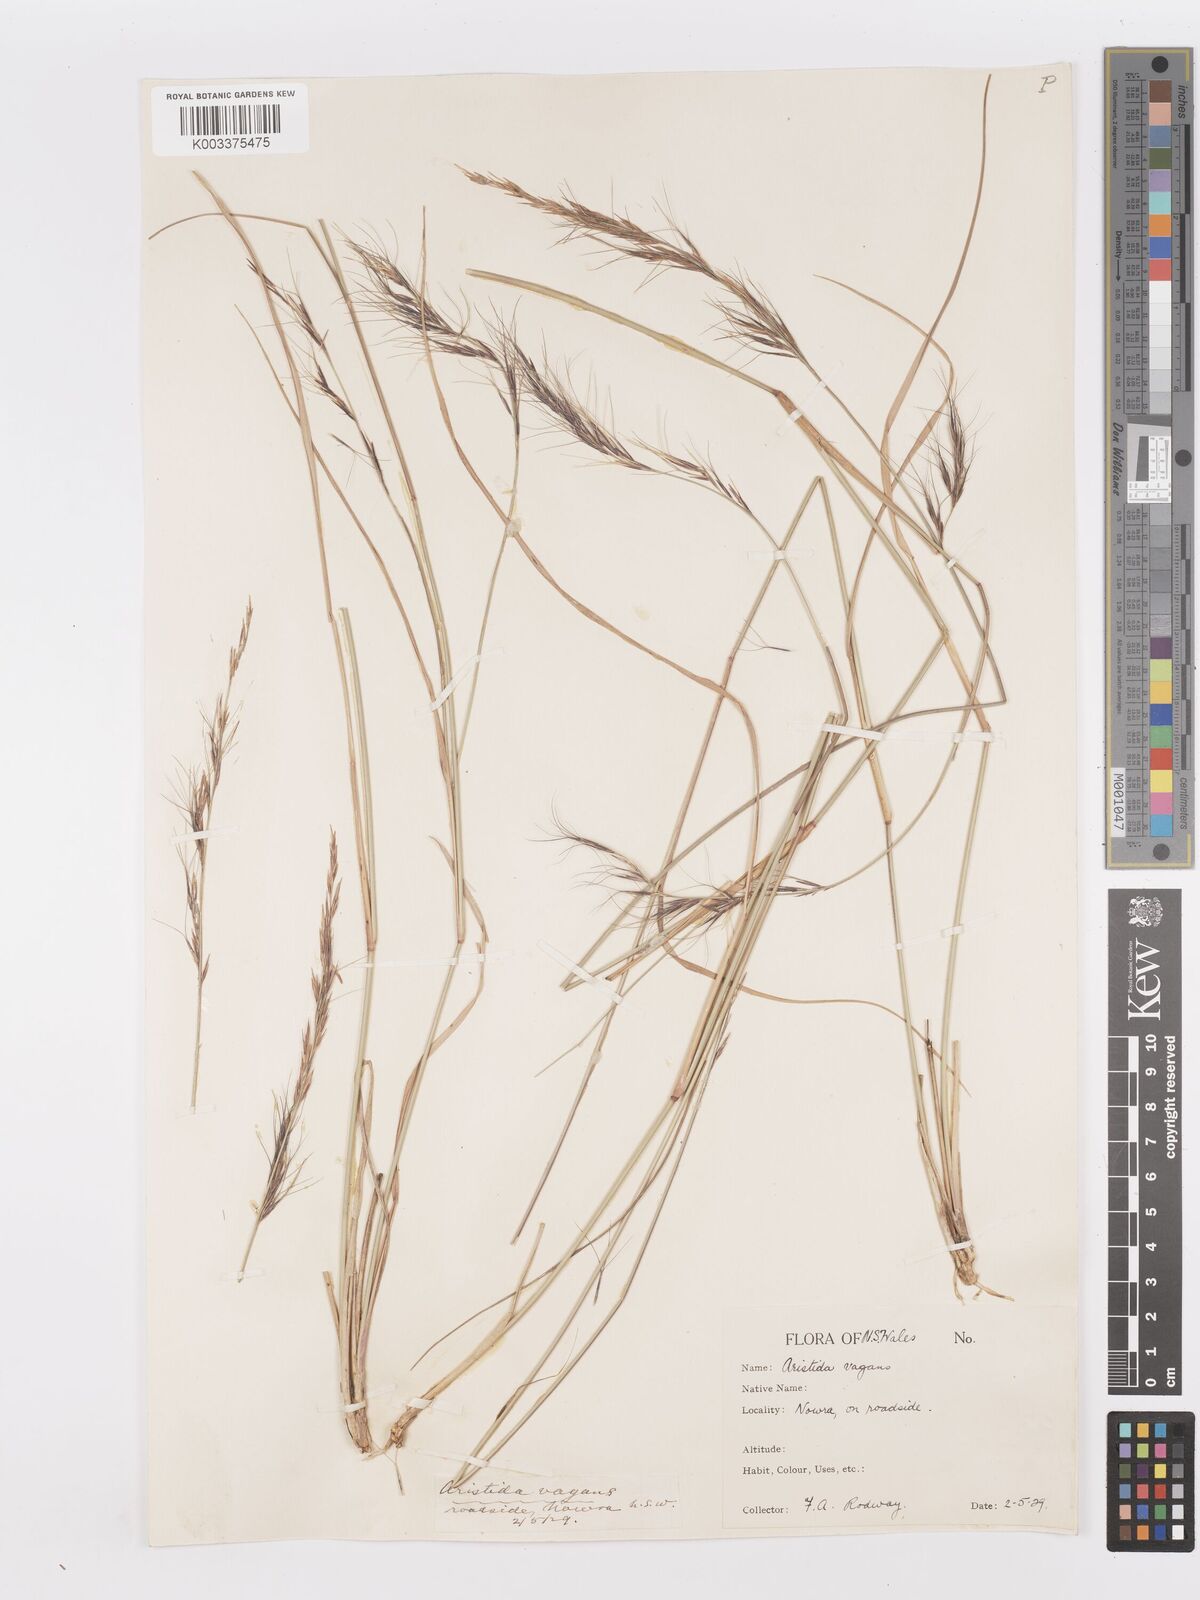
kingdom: Plantae
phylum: Tracheophyta
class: Liliopsida
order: Poales
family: Poaceae
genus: Aristida
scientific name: Aristida ramosa
